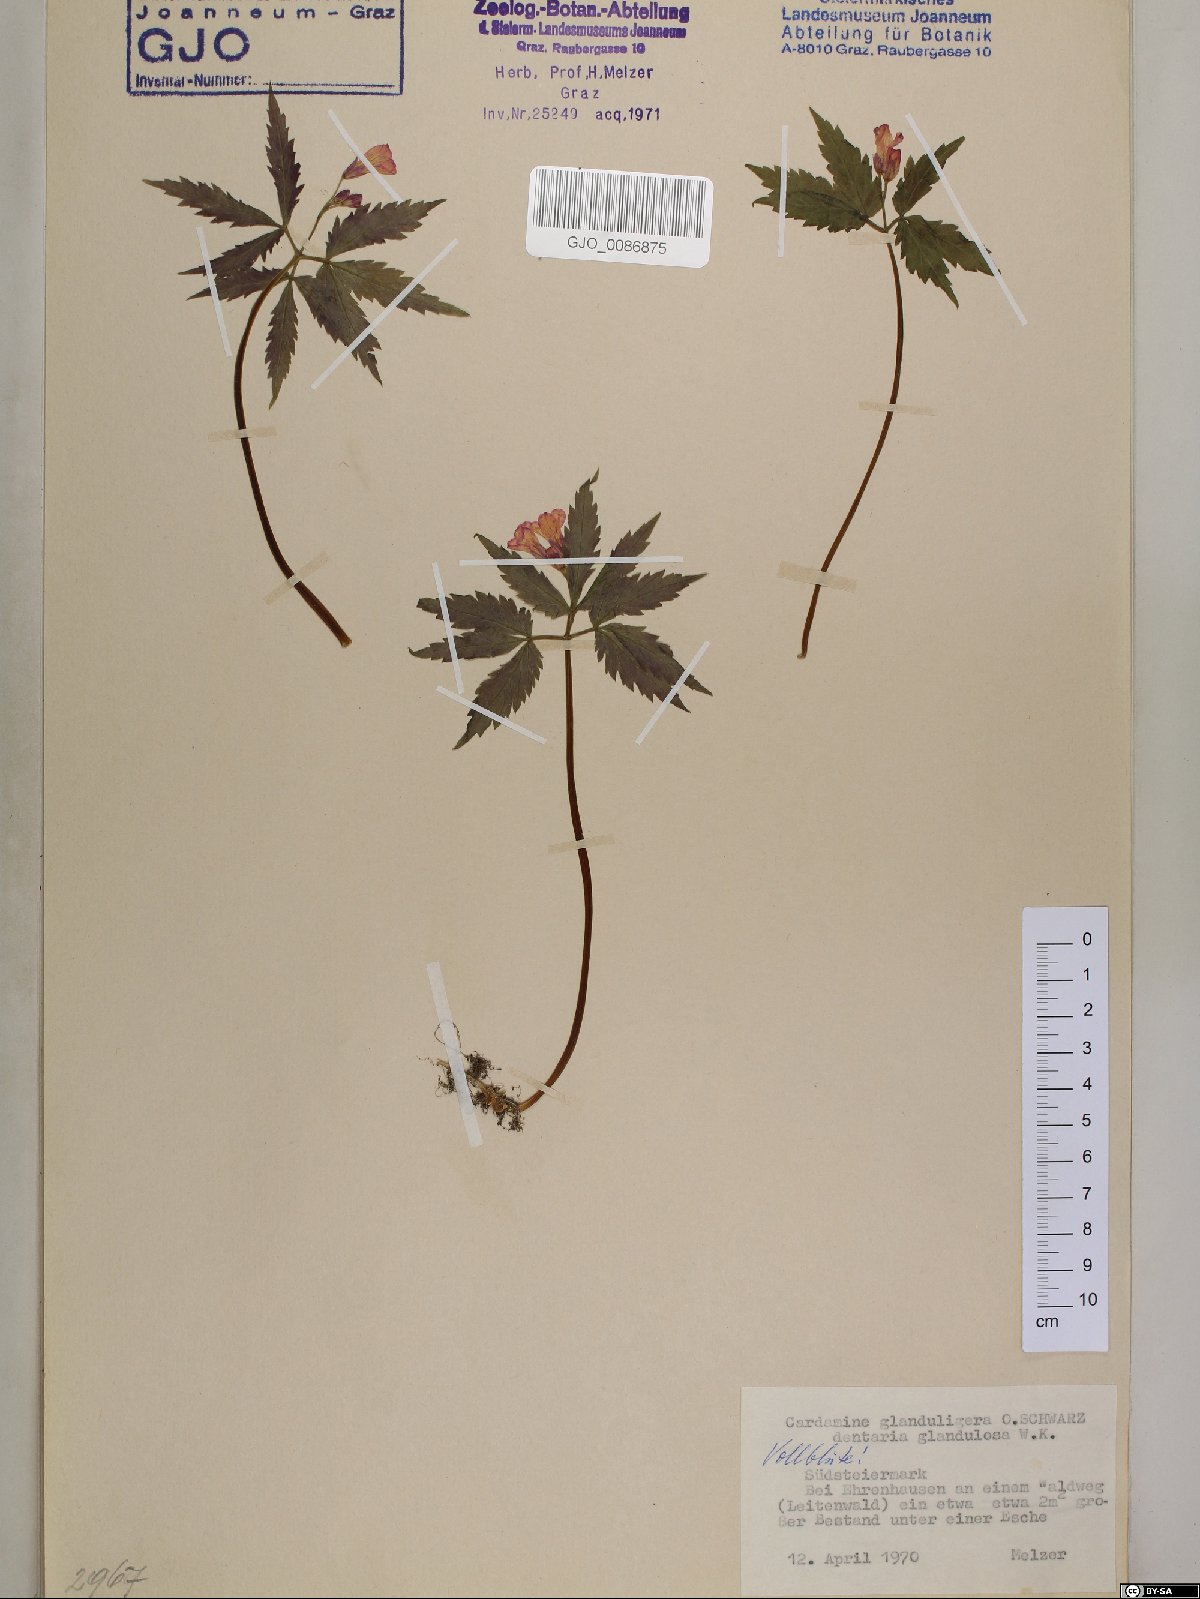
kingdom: Plantae
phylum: Tracheophyta
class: Magnoliopsida
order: Brassicales
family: Brassicaceae
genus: Cardamine
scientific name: Cardamine glanduligera
